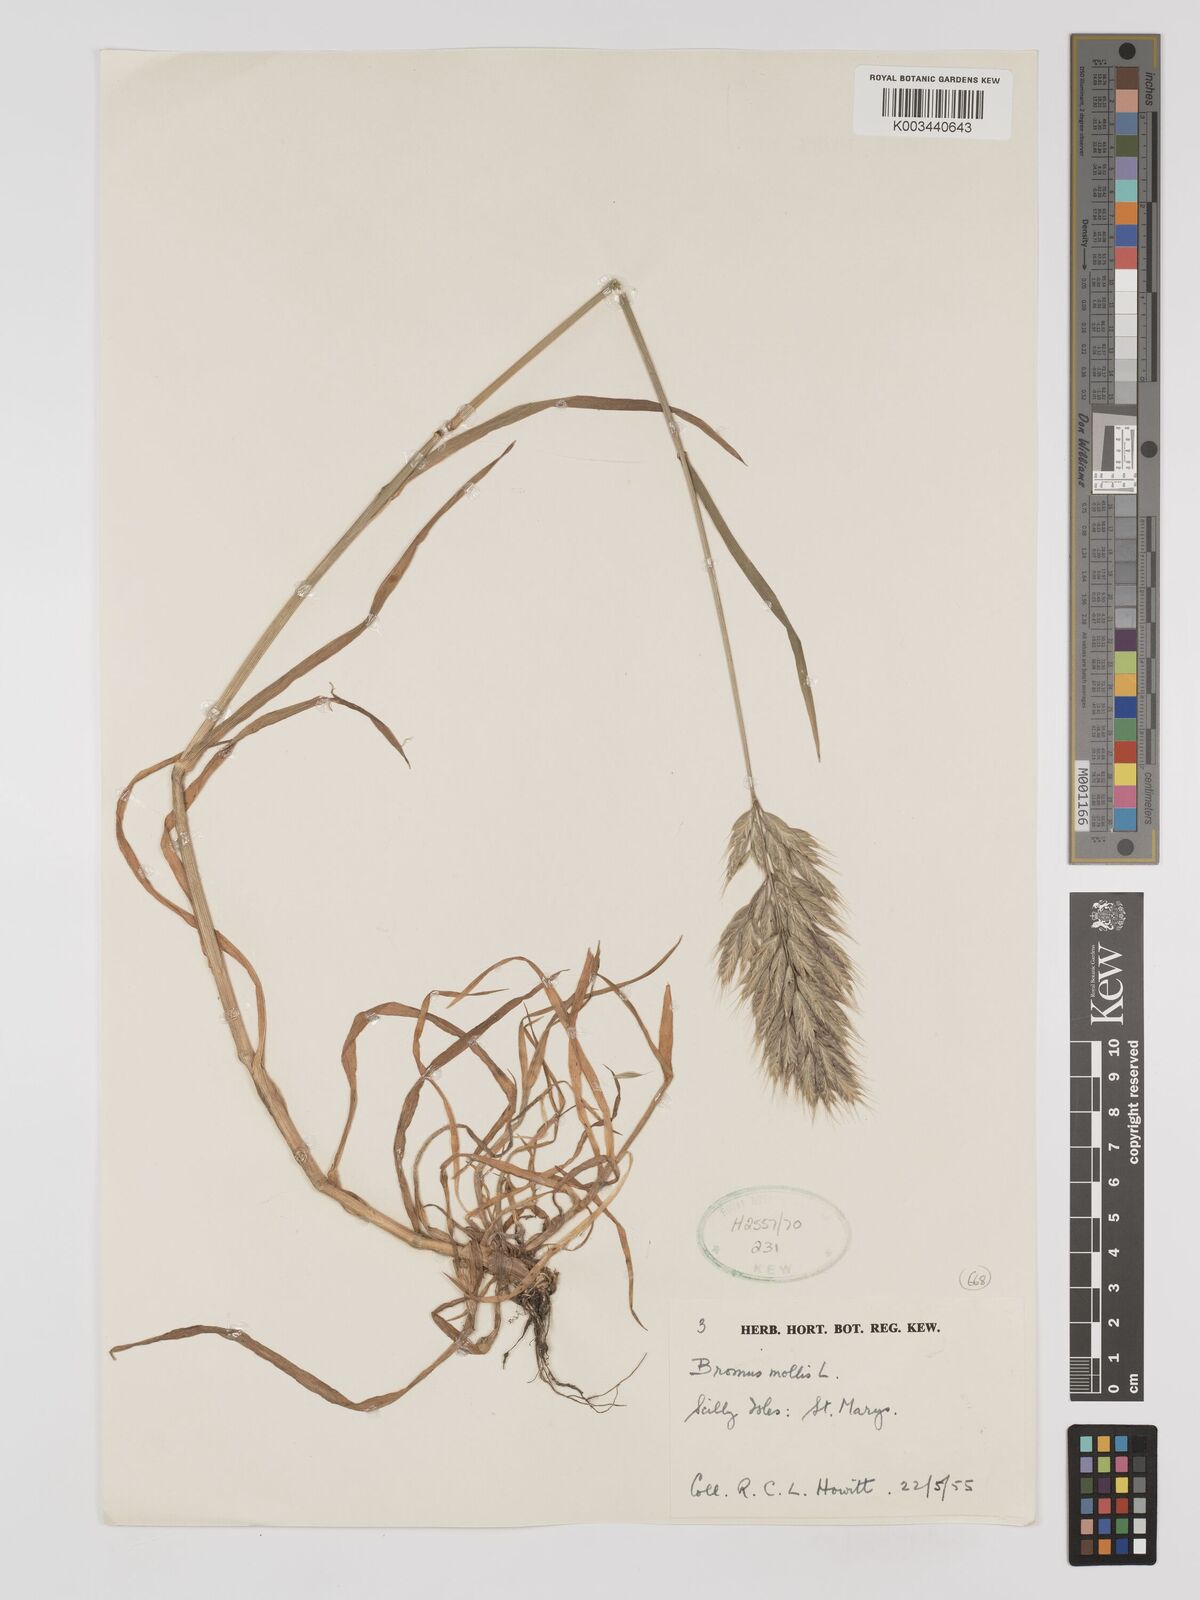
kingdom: Plantae
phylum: Tracheophyta
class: Liliopsida
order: Poales
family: Poaceae
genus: Bromus
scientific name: Bromus hordeaceus
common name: Soft brome
